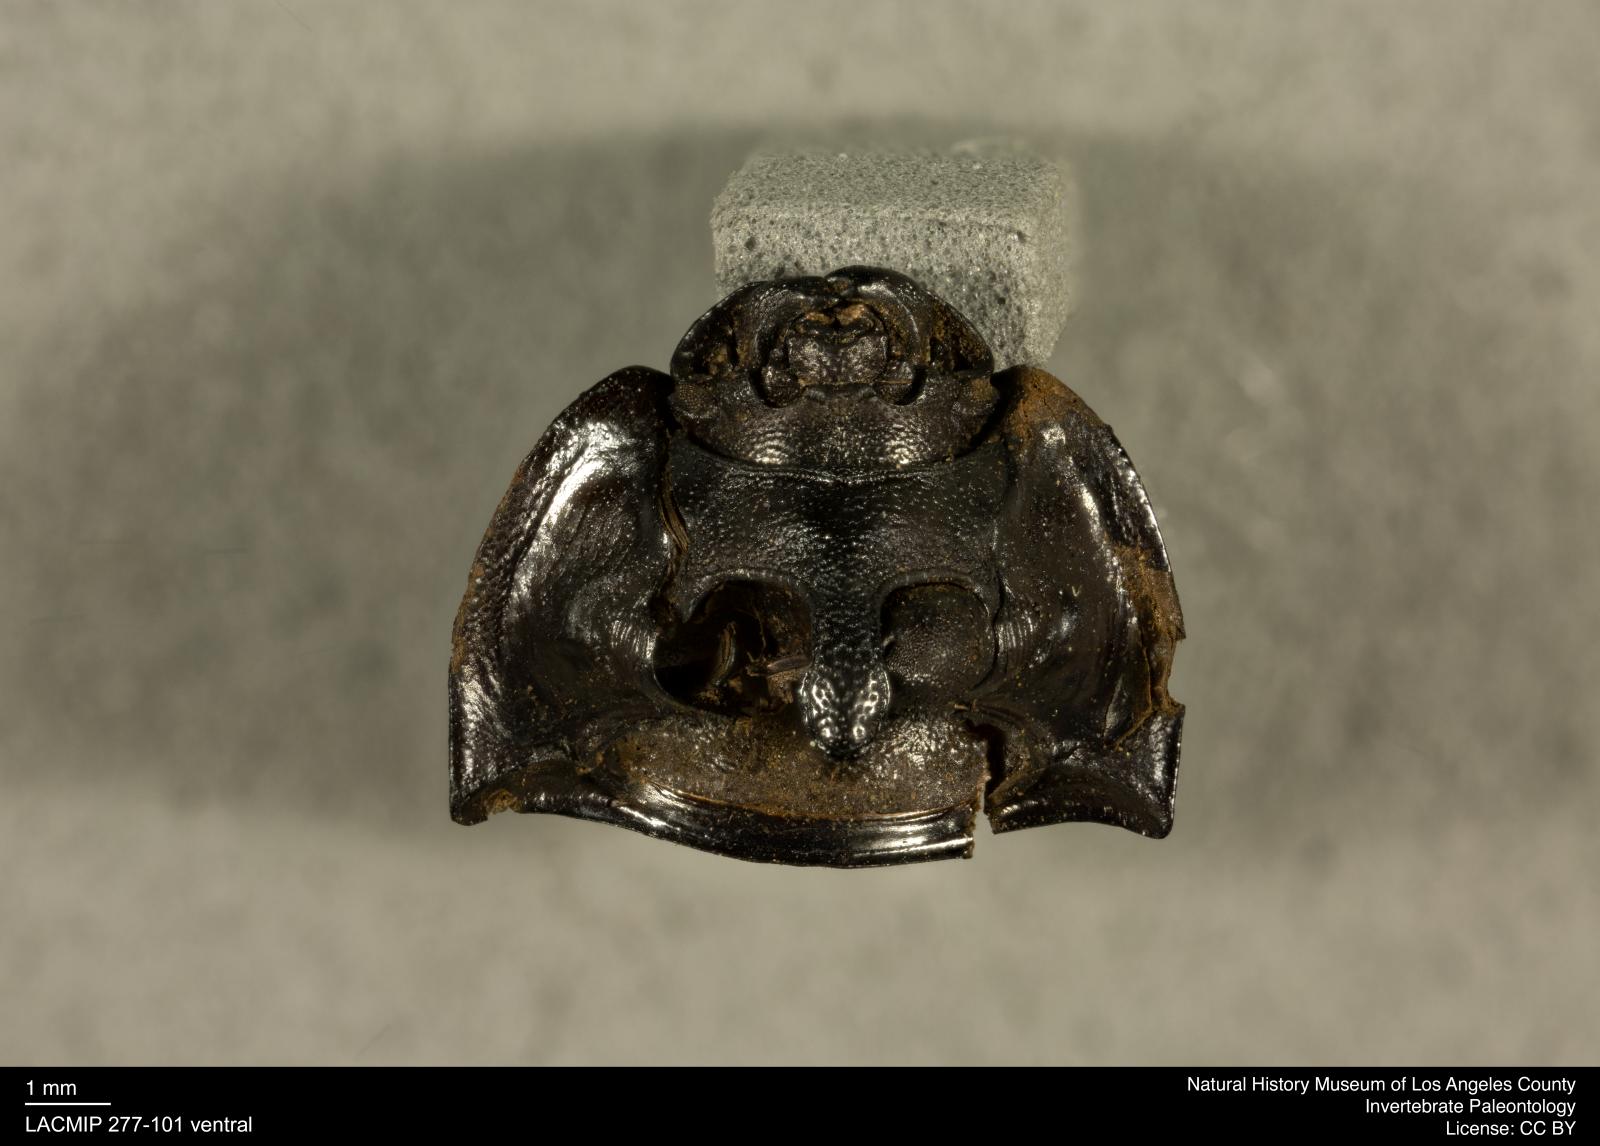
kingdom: Animalia
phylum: Arthropoda
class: Insecta
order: Coleoptera
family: Tenebrionidae
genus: Coniontis
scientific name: Coniontis abdominalis
